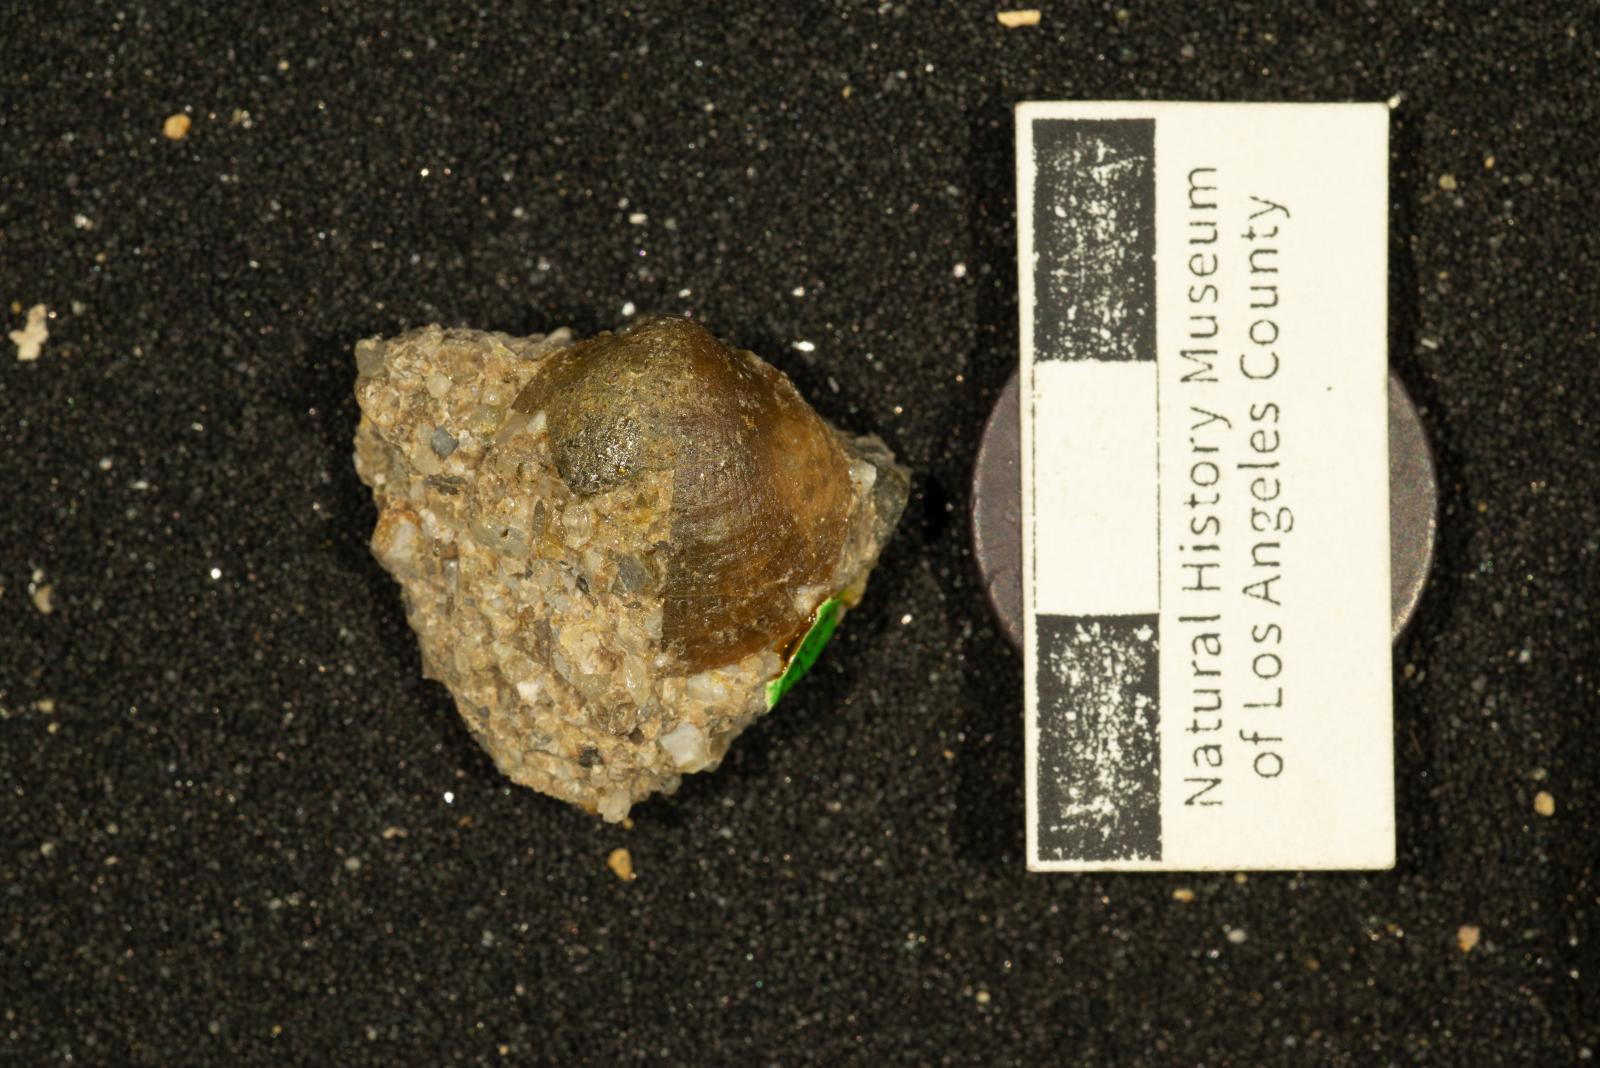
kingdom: Animalia
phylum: Mollusca
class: Bivalvia
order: Arcida
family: Glycymerididae
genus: Glycymeris
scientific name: Glycymeris Pectunculus pacificus
